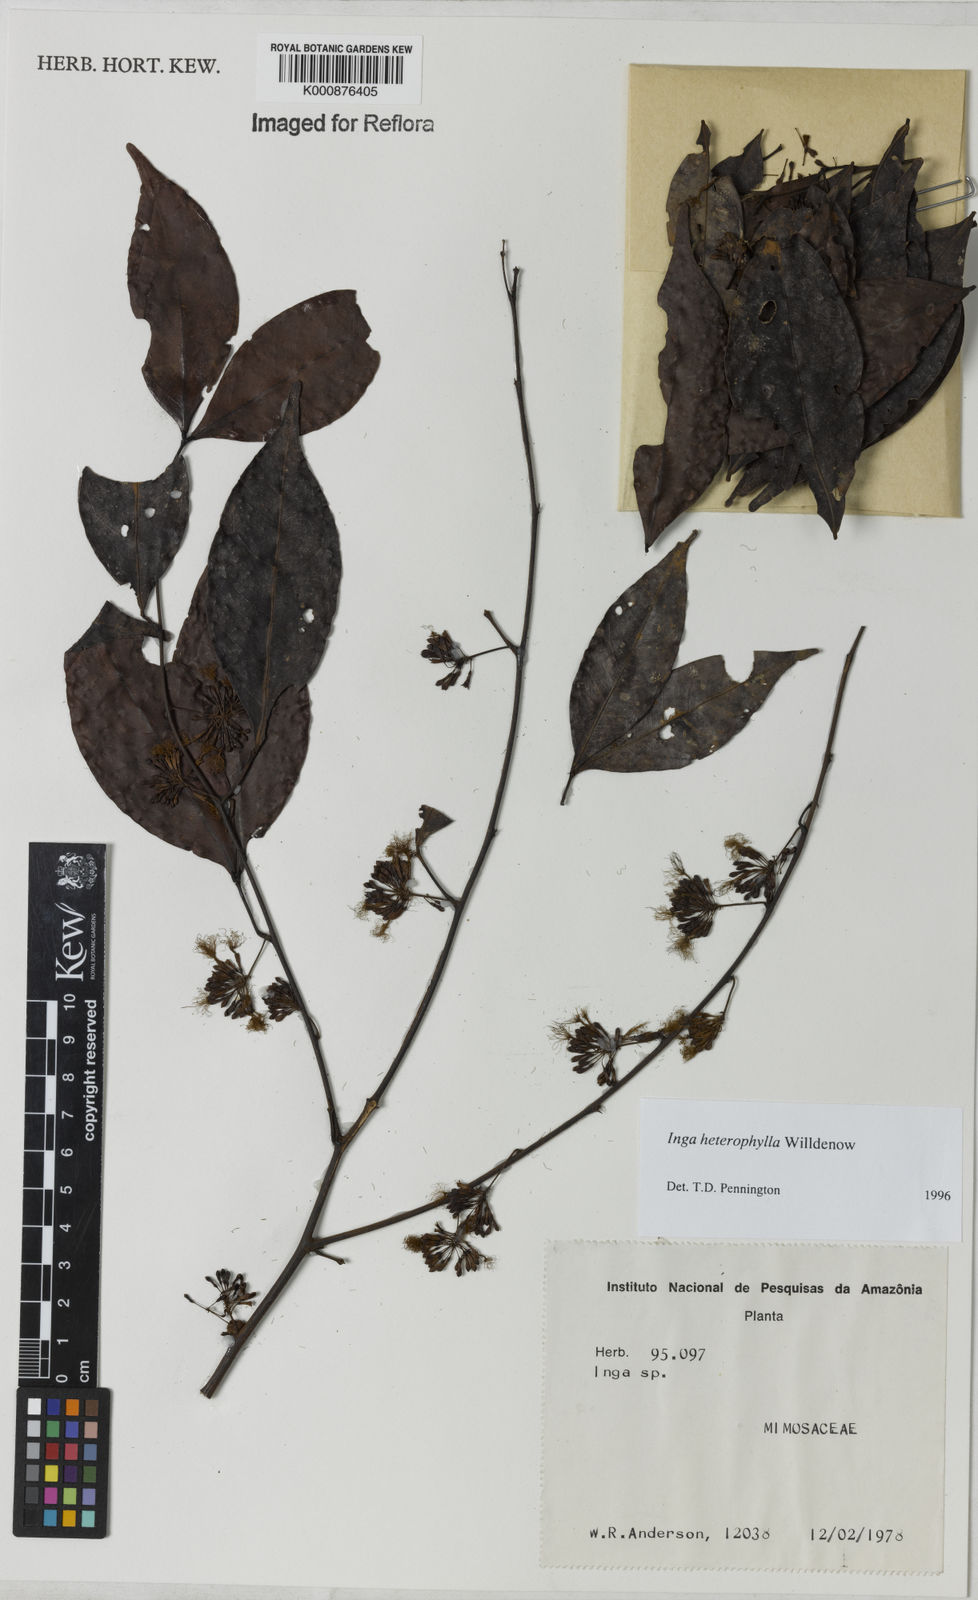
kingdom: Plantae
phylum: Tracheophyta
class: Magnoliopsida
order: Fabales
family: Fabaceae
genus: Inga
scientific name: Inga heterophylla
